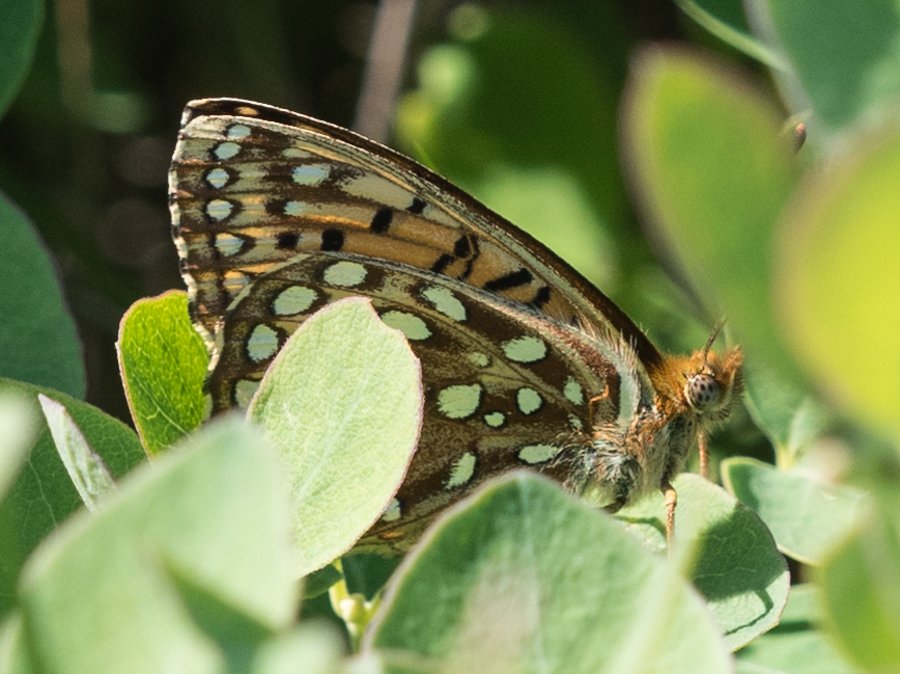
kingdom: Animalia
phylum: Arthropoda
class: Insecta
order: Lepidoptera
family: Nymphalidae
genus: Speyeria
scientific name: Speyeria atlantis
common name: Atlantis Fritillary
